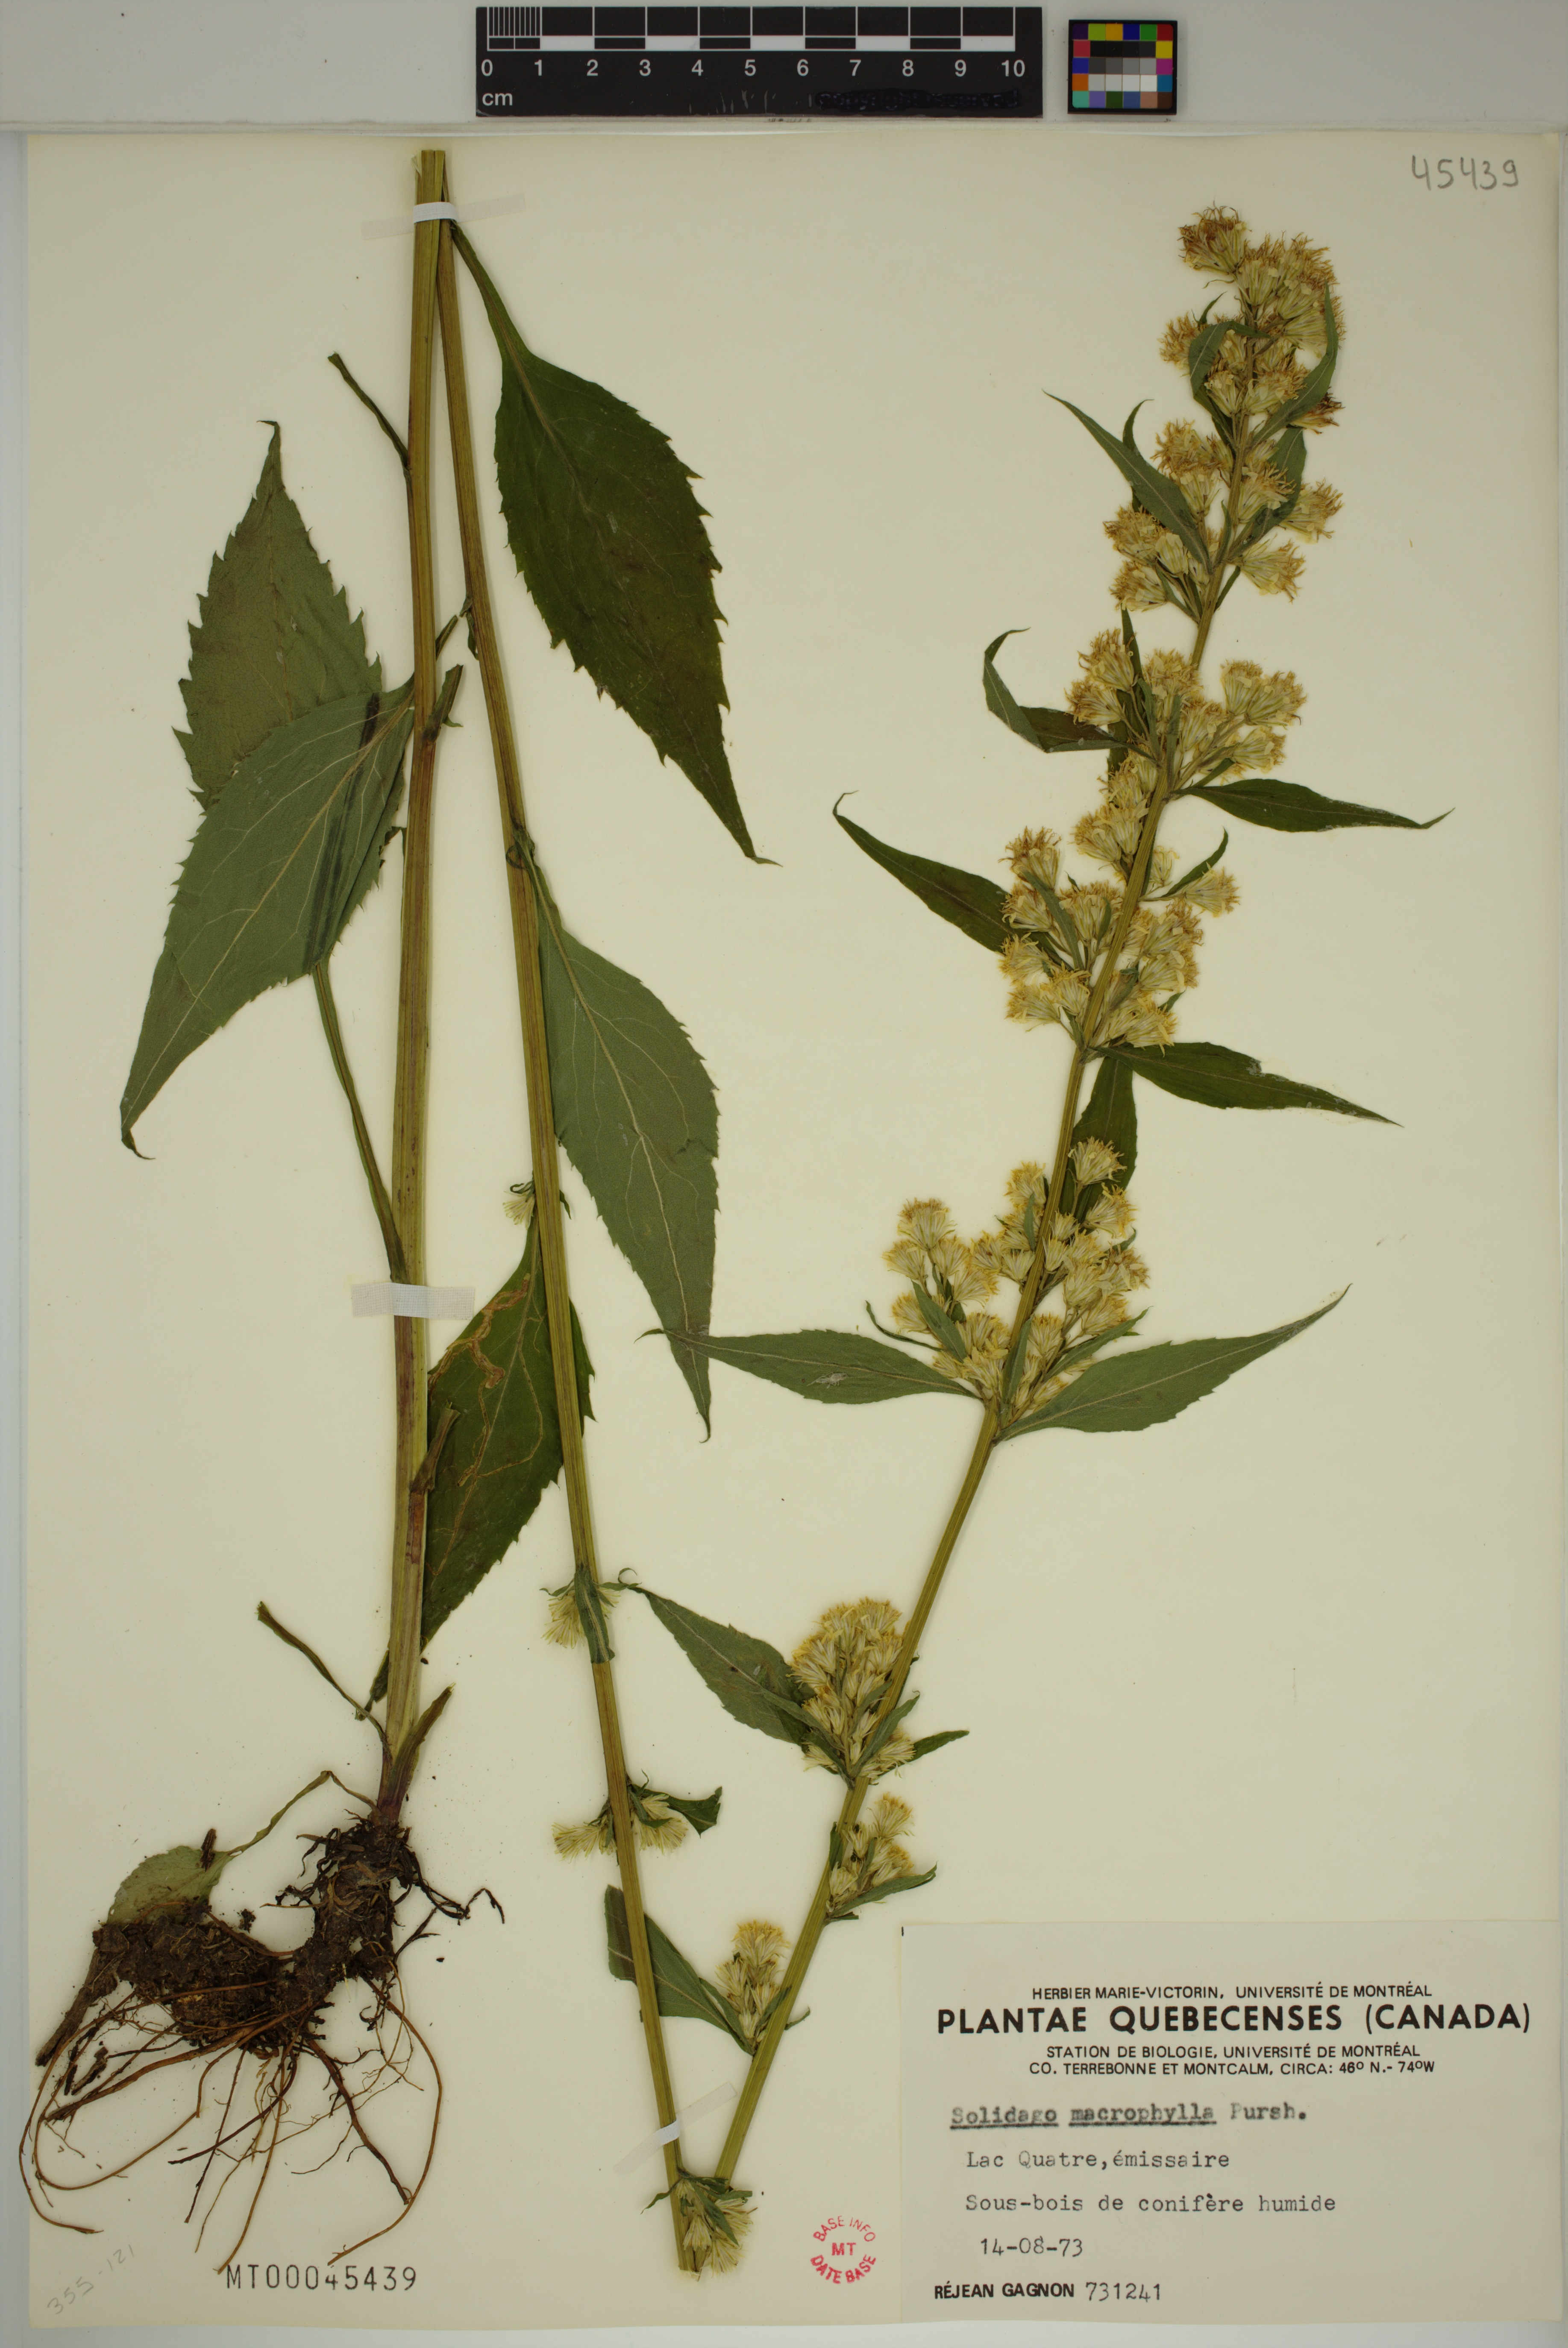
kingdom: Plantae
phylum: Tracheophyta
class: Magnoliopsida
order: Asterales
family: Asteraceae
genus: Solidago
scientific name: Solidago macrophylla
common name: Large-leaved goldenrod
